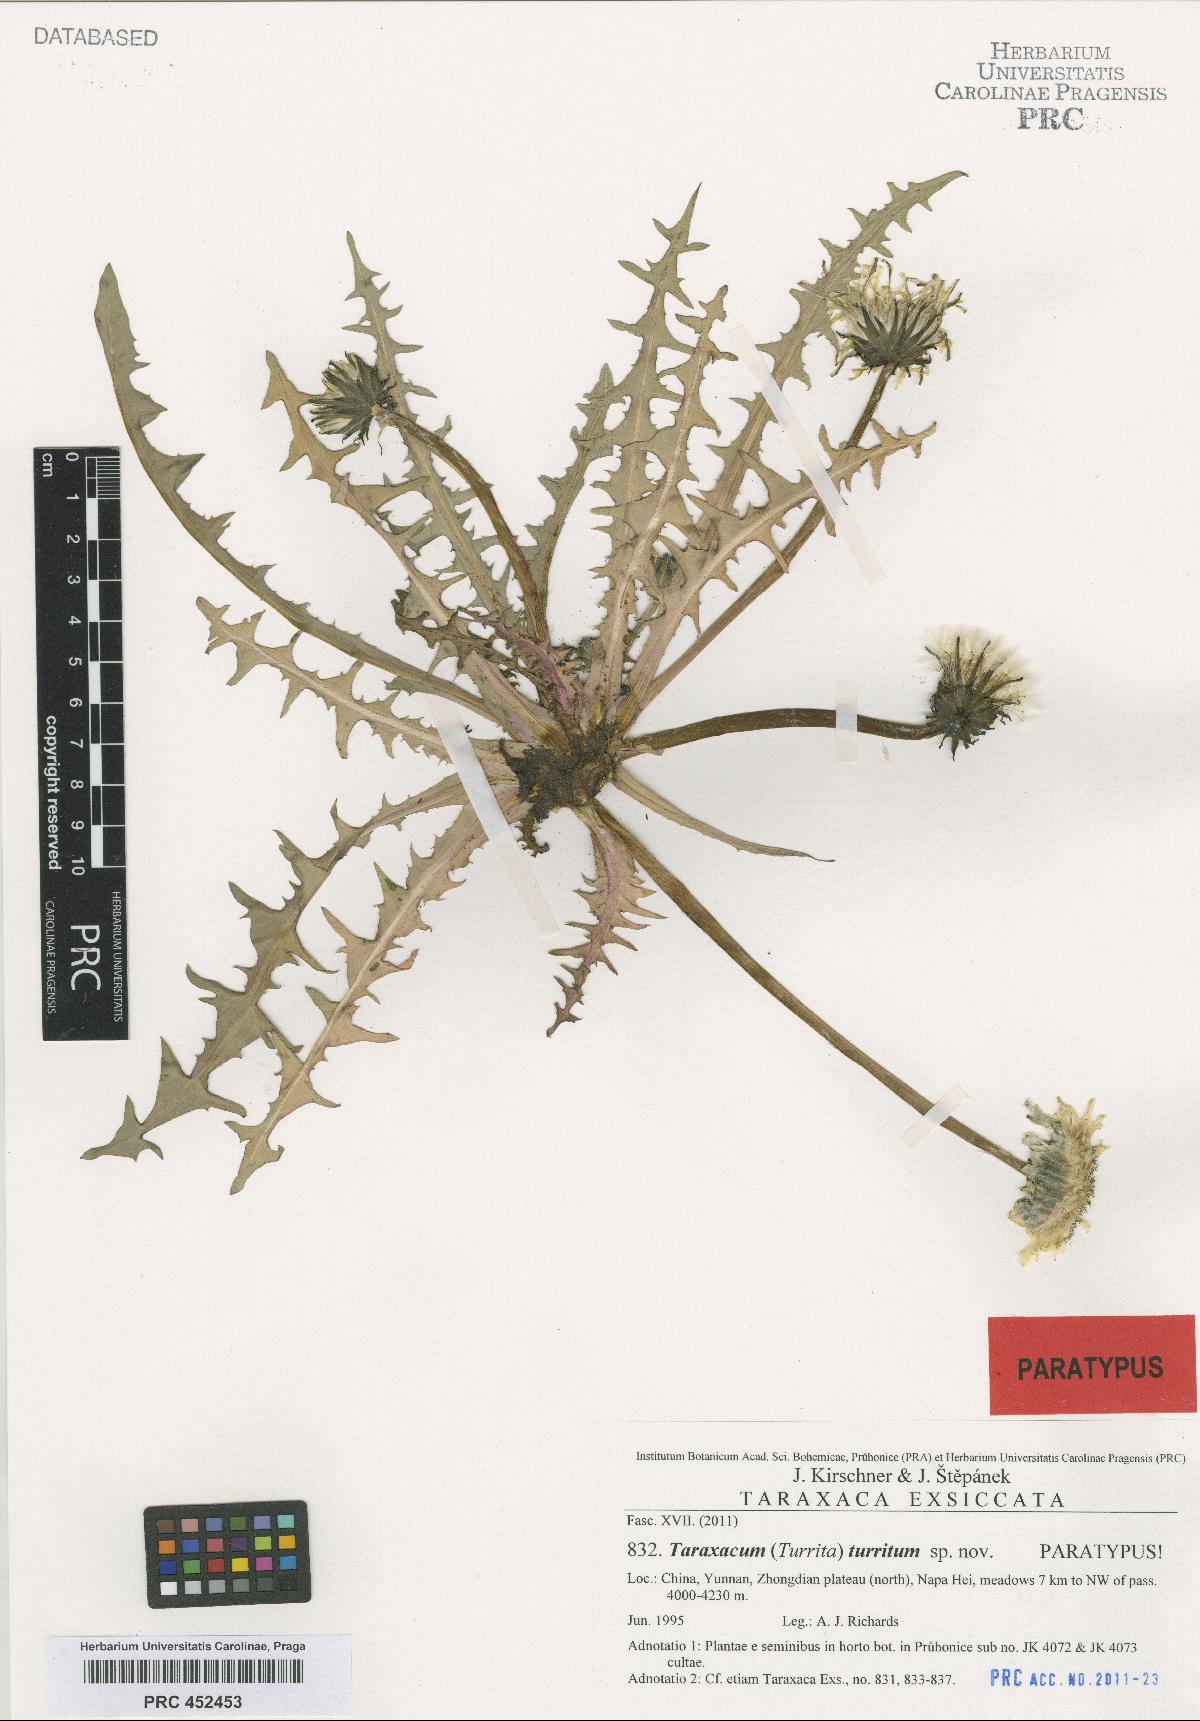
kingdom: Plantae
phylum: Tracheophyta
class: Magnoliopsida
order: Asterales
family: Asteraceae
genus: Taraxacum
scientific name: Taraxacum turritum
